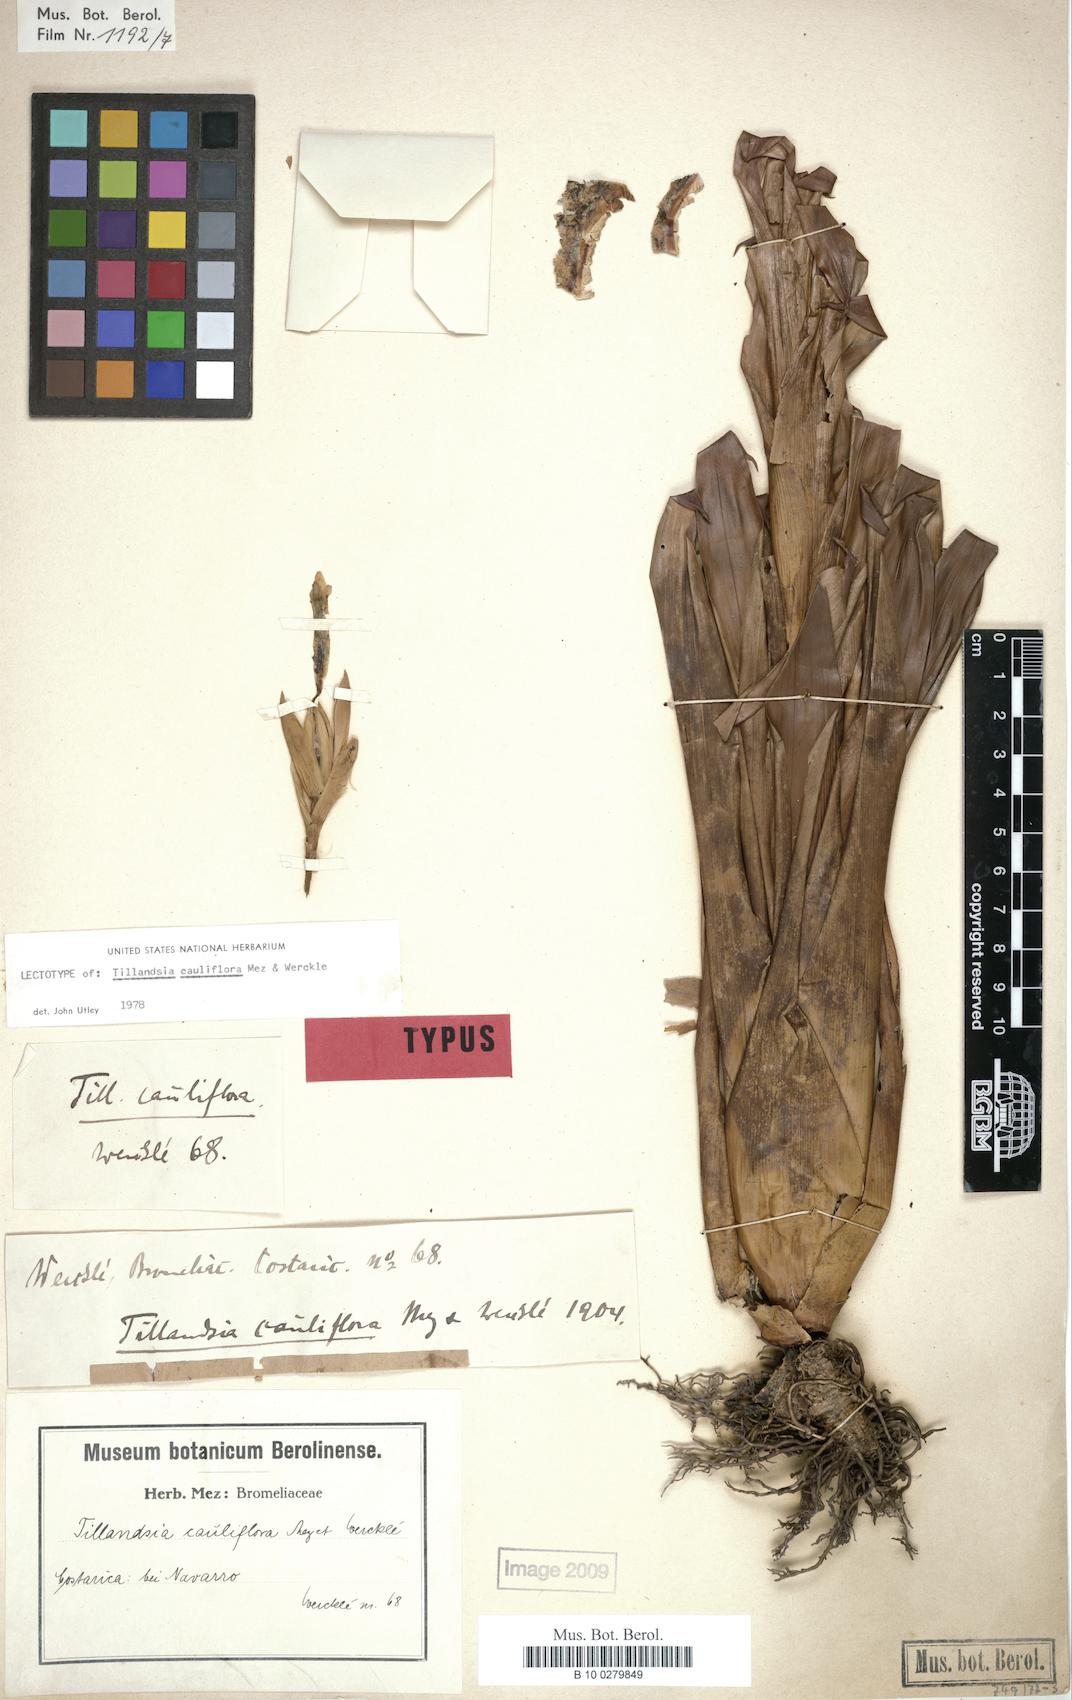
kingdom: Plantae
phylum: Tracheophyta
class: Liliopsida
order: Poales
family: Bromeliaceae
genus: Tillandsia
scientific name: Tillandsia cauliflora
